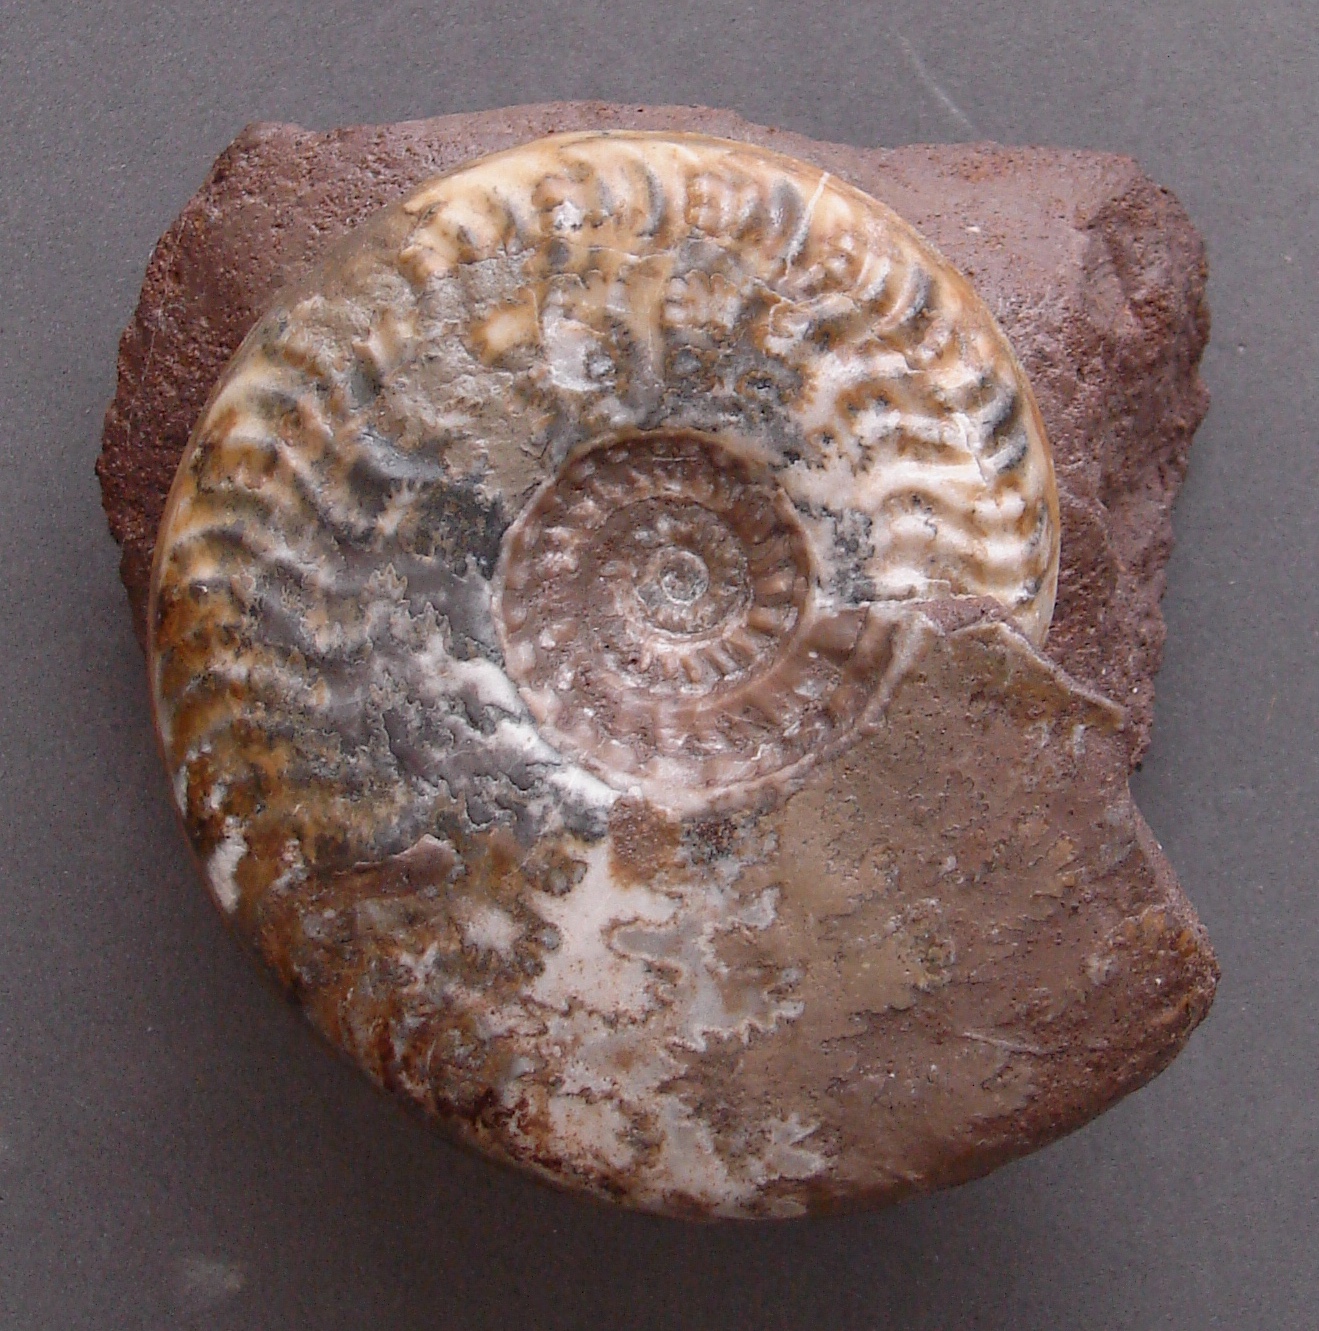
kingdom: Animalia
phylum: Mollusca
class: Cephalopoda
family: Graphoceratidae
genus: Ludwigia
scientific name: Ludwigia murchisonae
